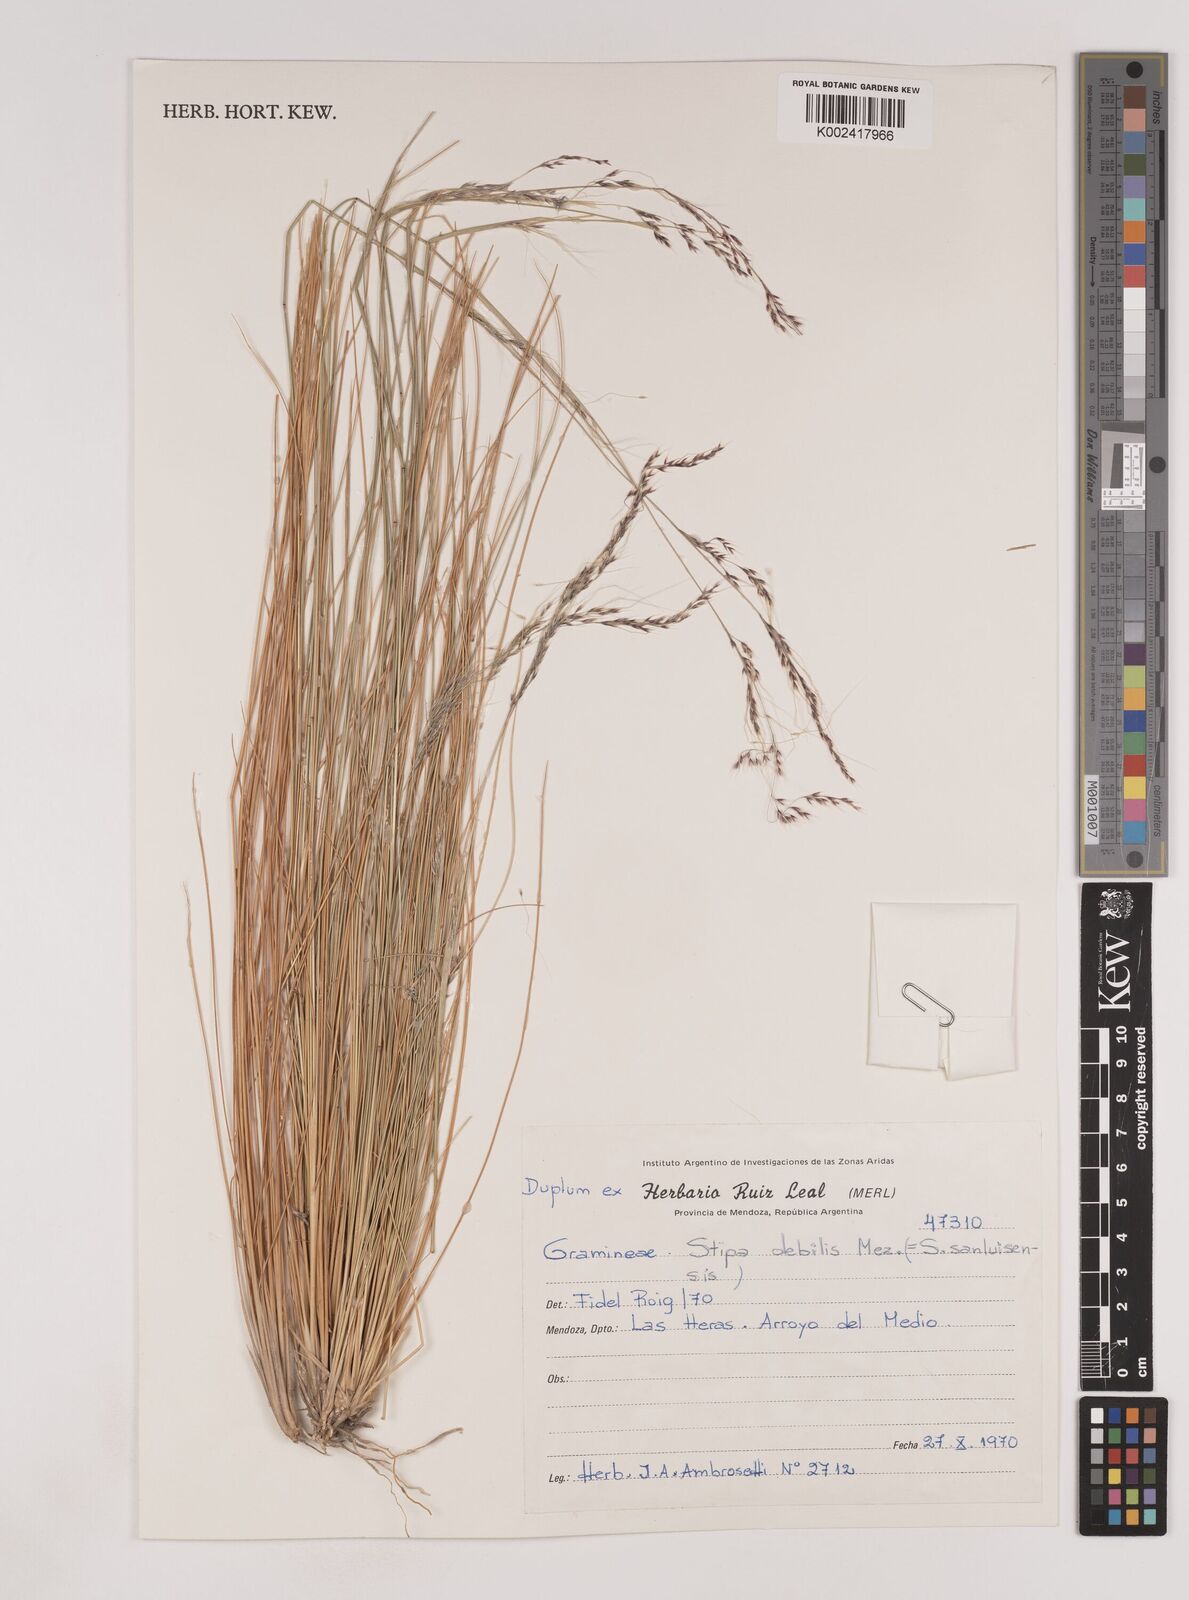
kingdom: Plantae
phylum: Tracheophyta
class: Liliopsida
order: Poales
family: Poaceae
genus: Nassella
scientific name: Nassella sanluisensis
